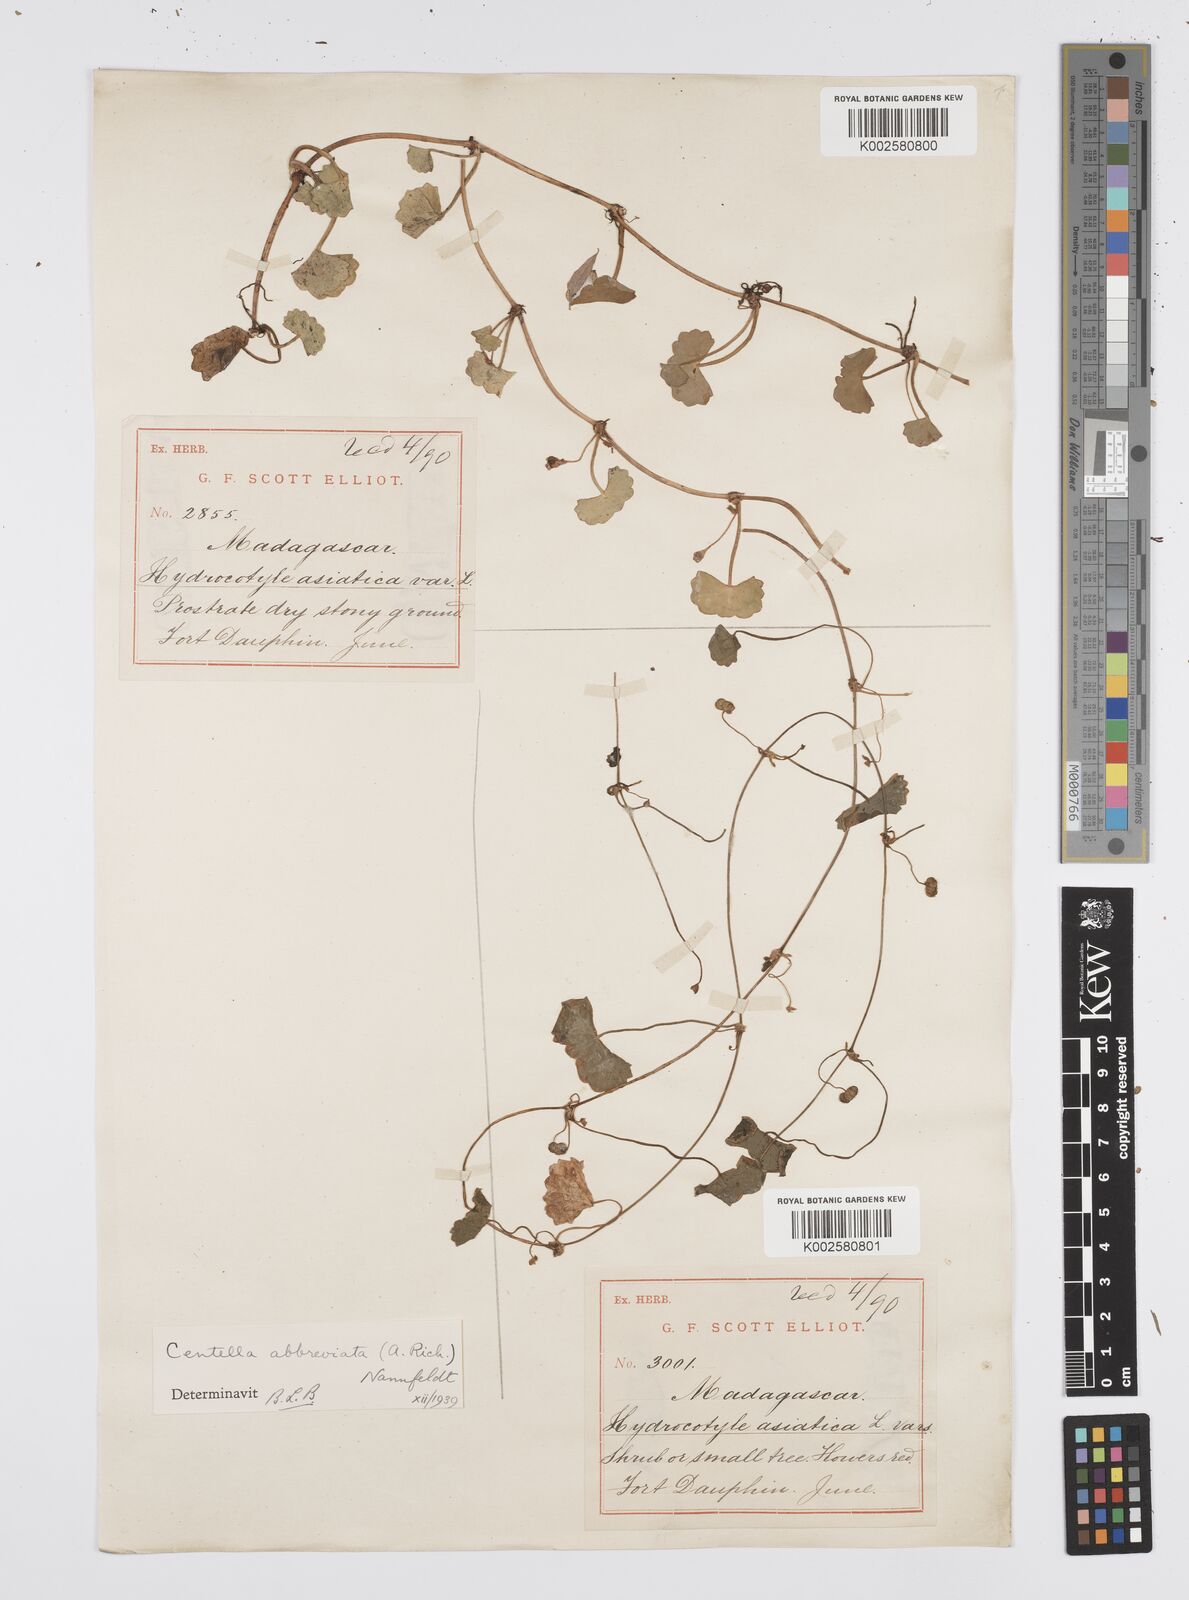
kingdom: Plantae
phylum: Tracheophyta
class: Magnoliopsida
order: Apiales
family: Apiaceae
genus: Centella
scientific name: Centella asiatica
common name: Spadeleaf
